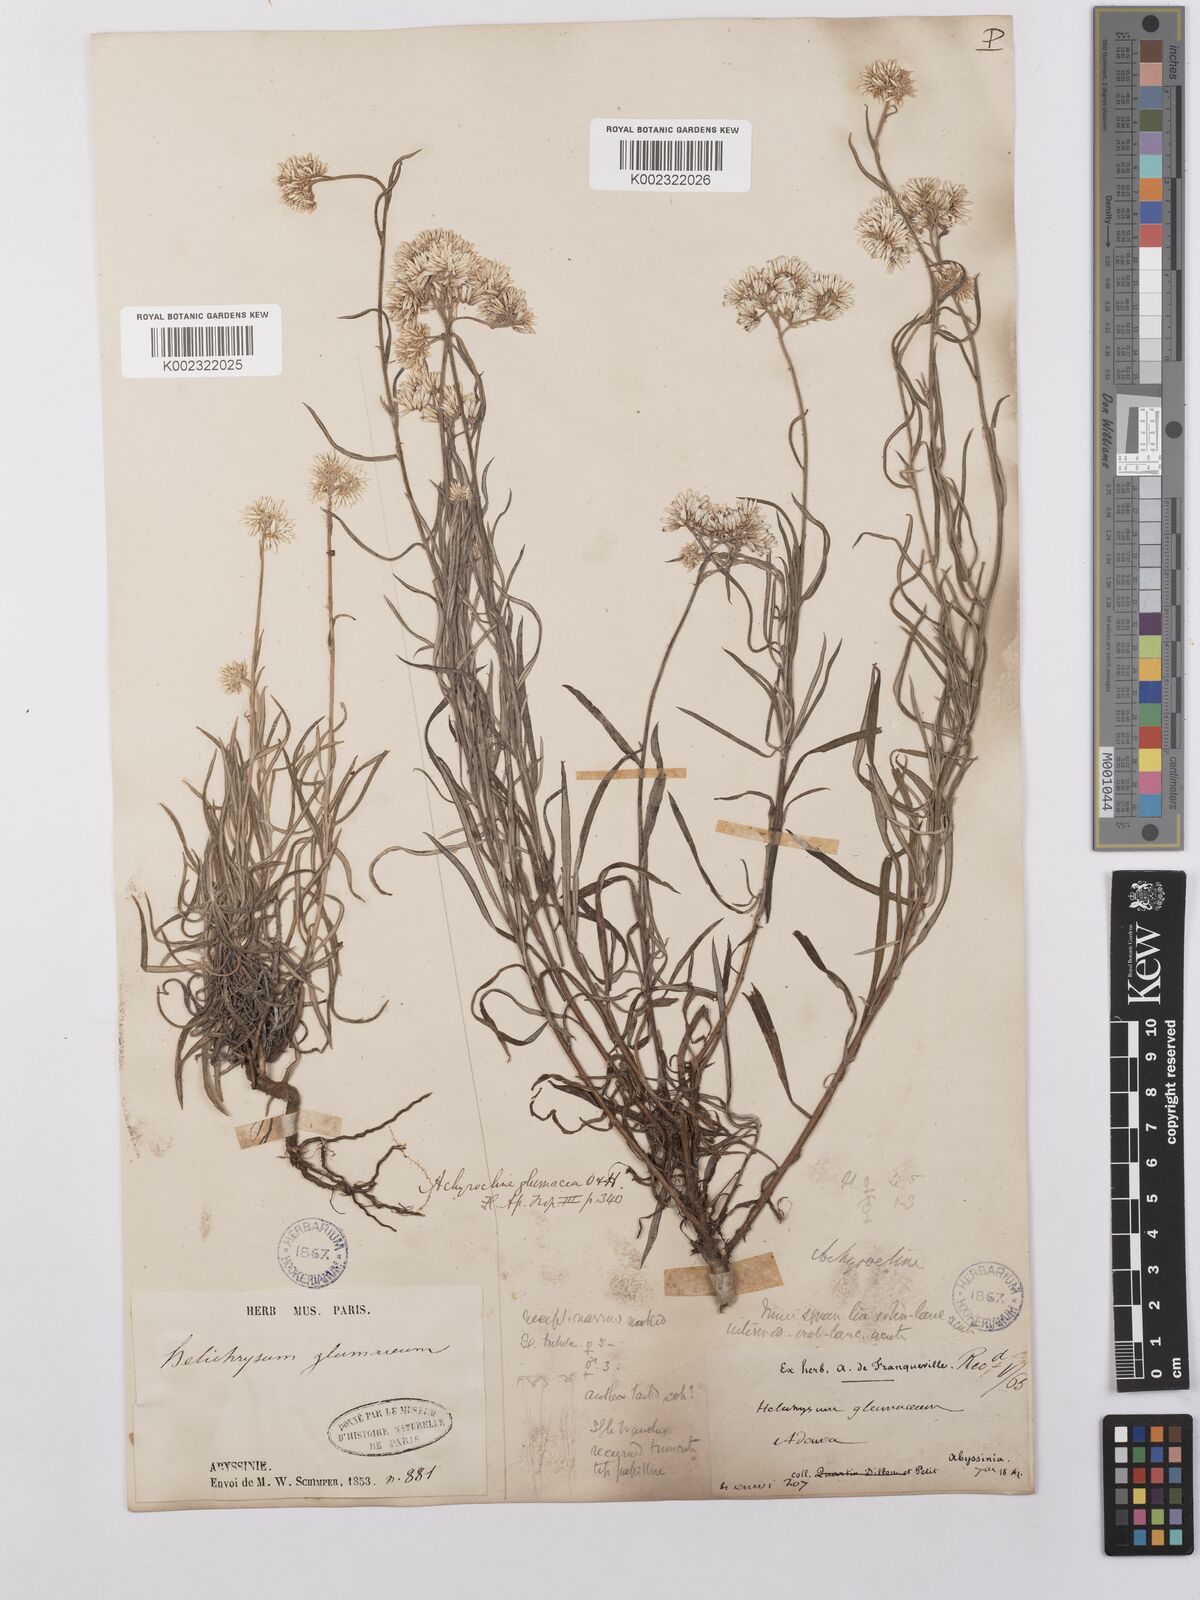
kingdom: Plantae
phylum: Tracheophyta
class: Magnoliopsida
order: Asterales
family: Asteraceae
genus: Helichrysum
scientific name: Helichrysum glumaceum
